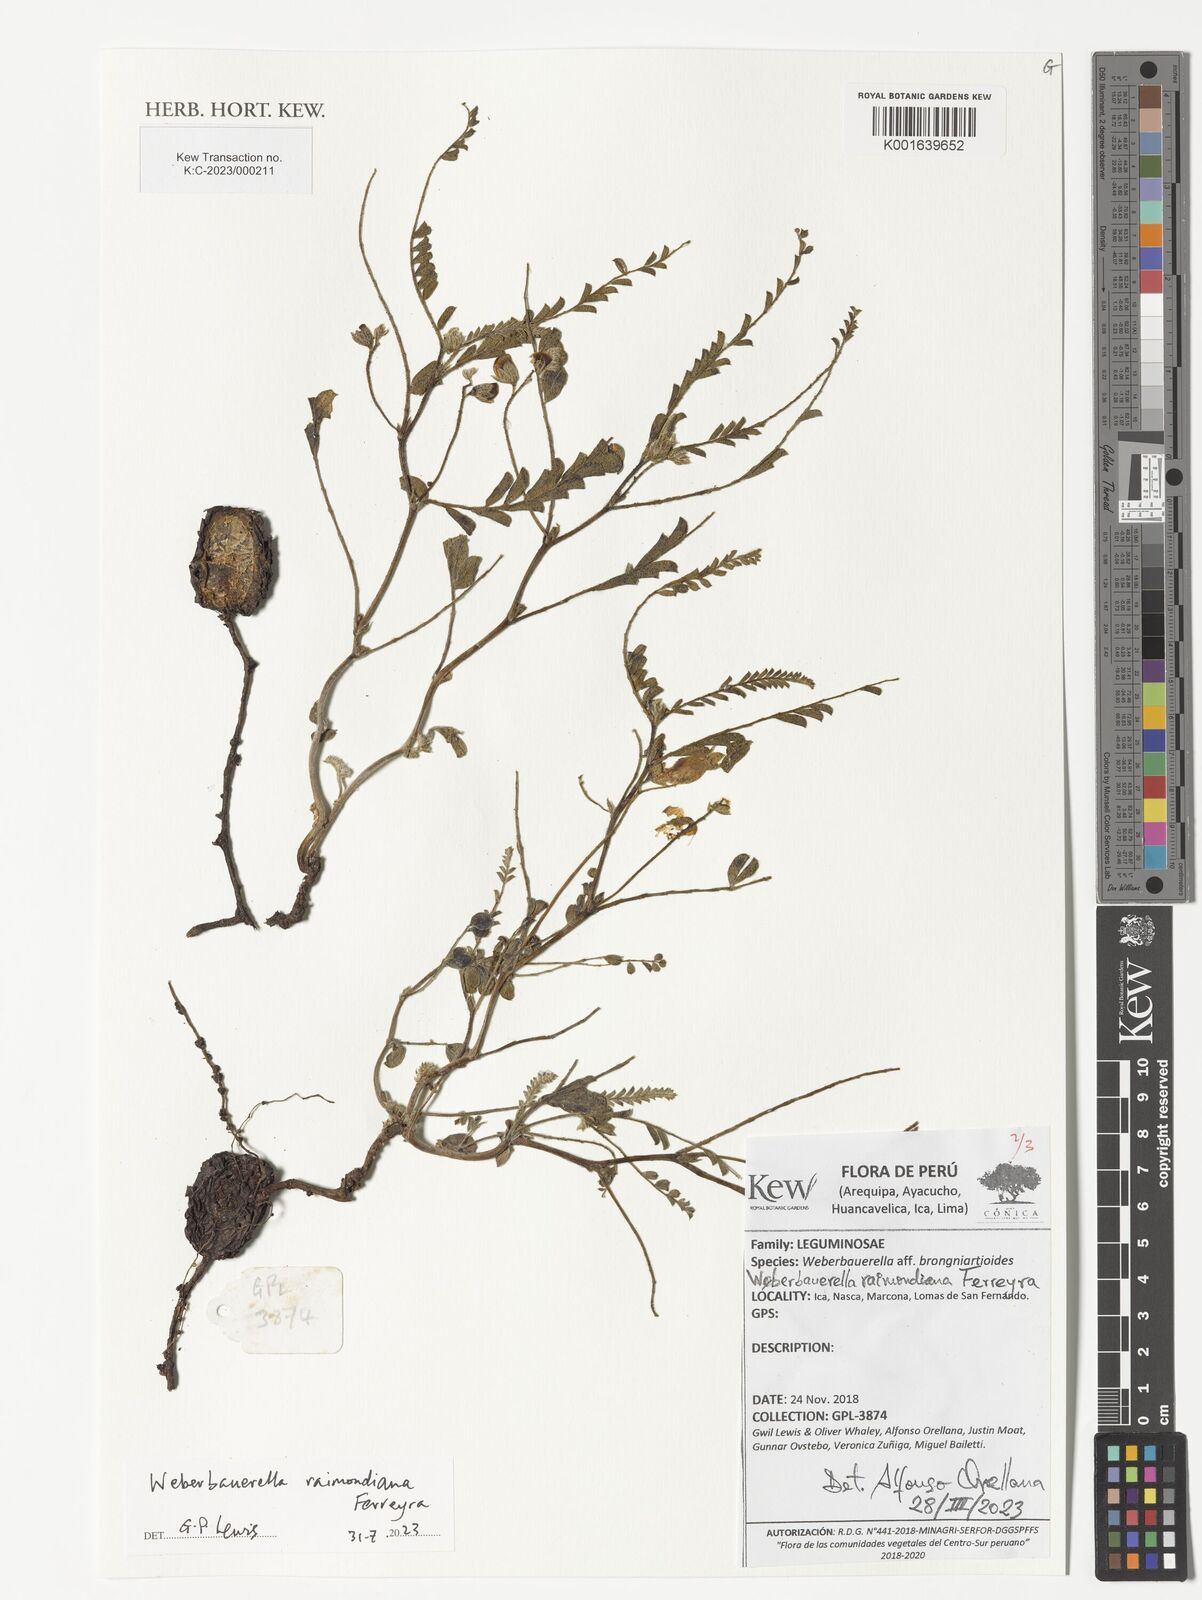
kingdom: Plantae
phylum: Tracheophyta
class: Magnoliopsida
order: Fabales
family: Fabaceae
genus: Weberbauerella
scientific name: Weberbauerella raimondiana
